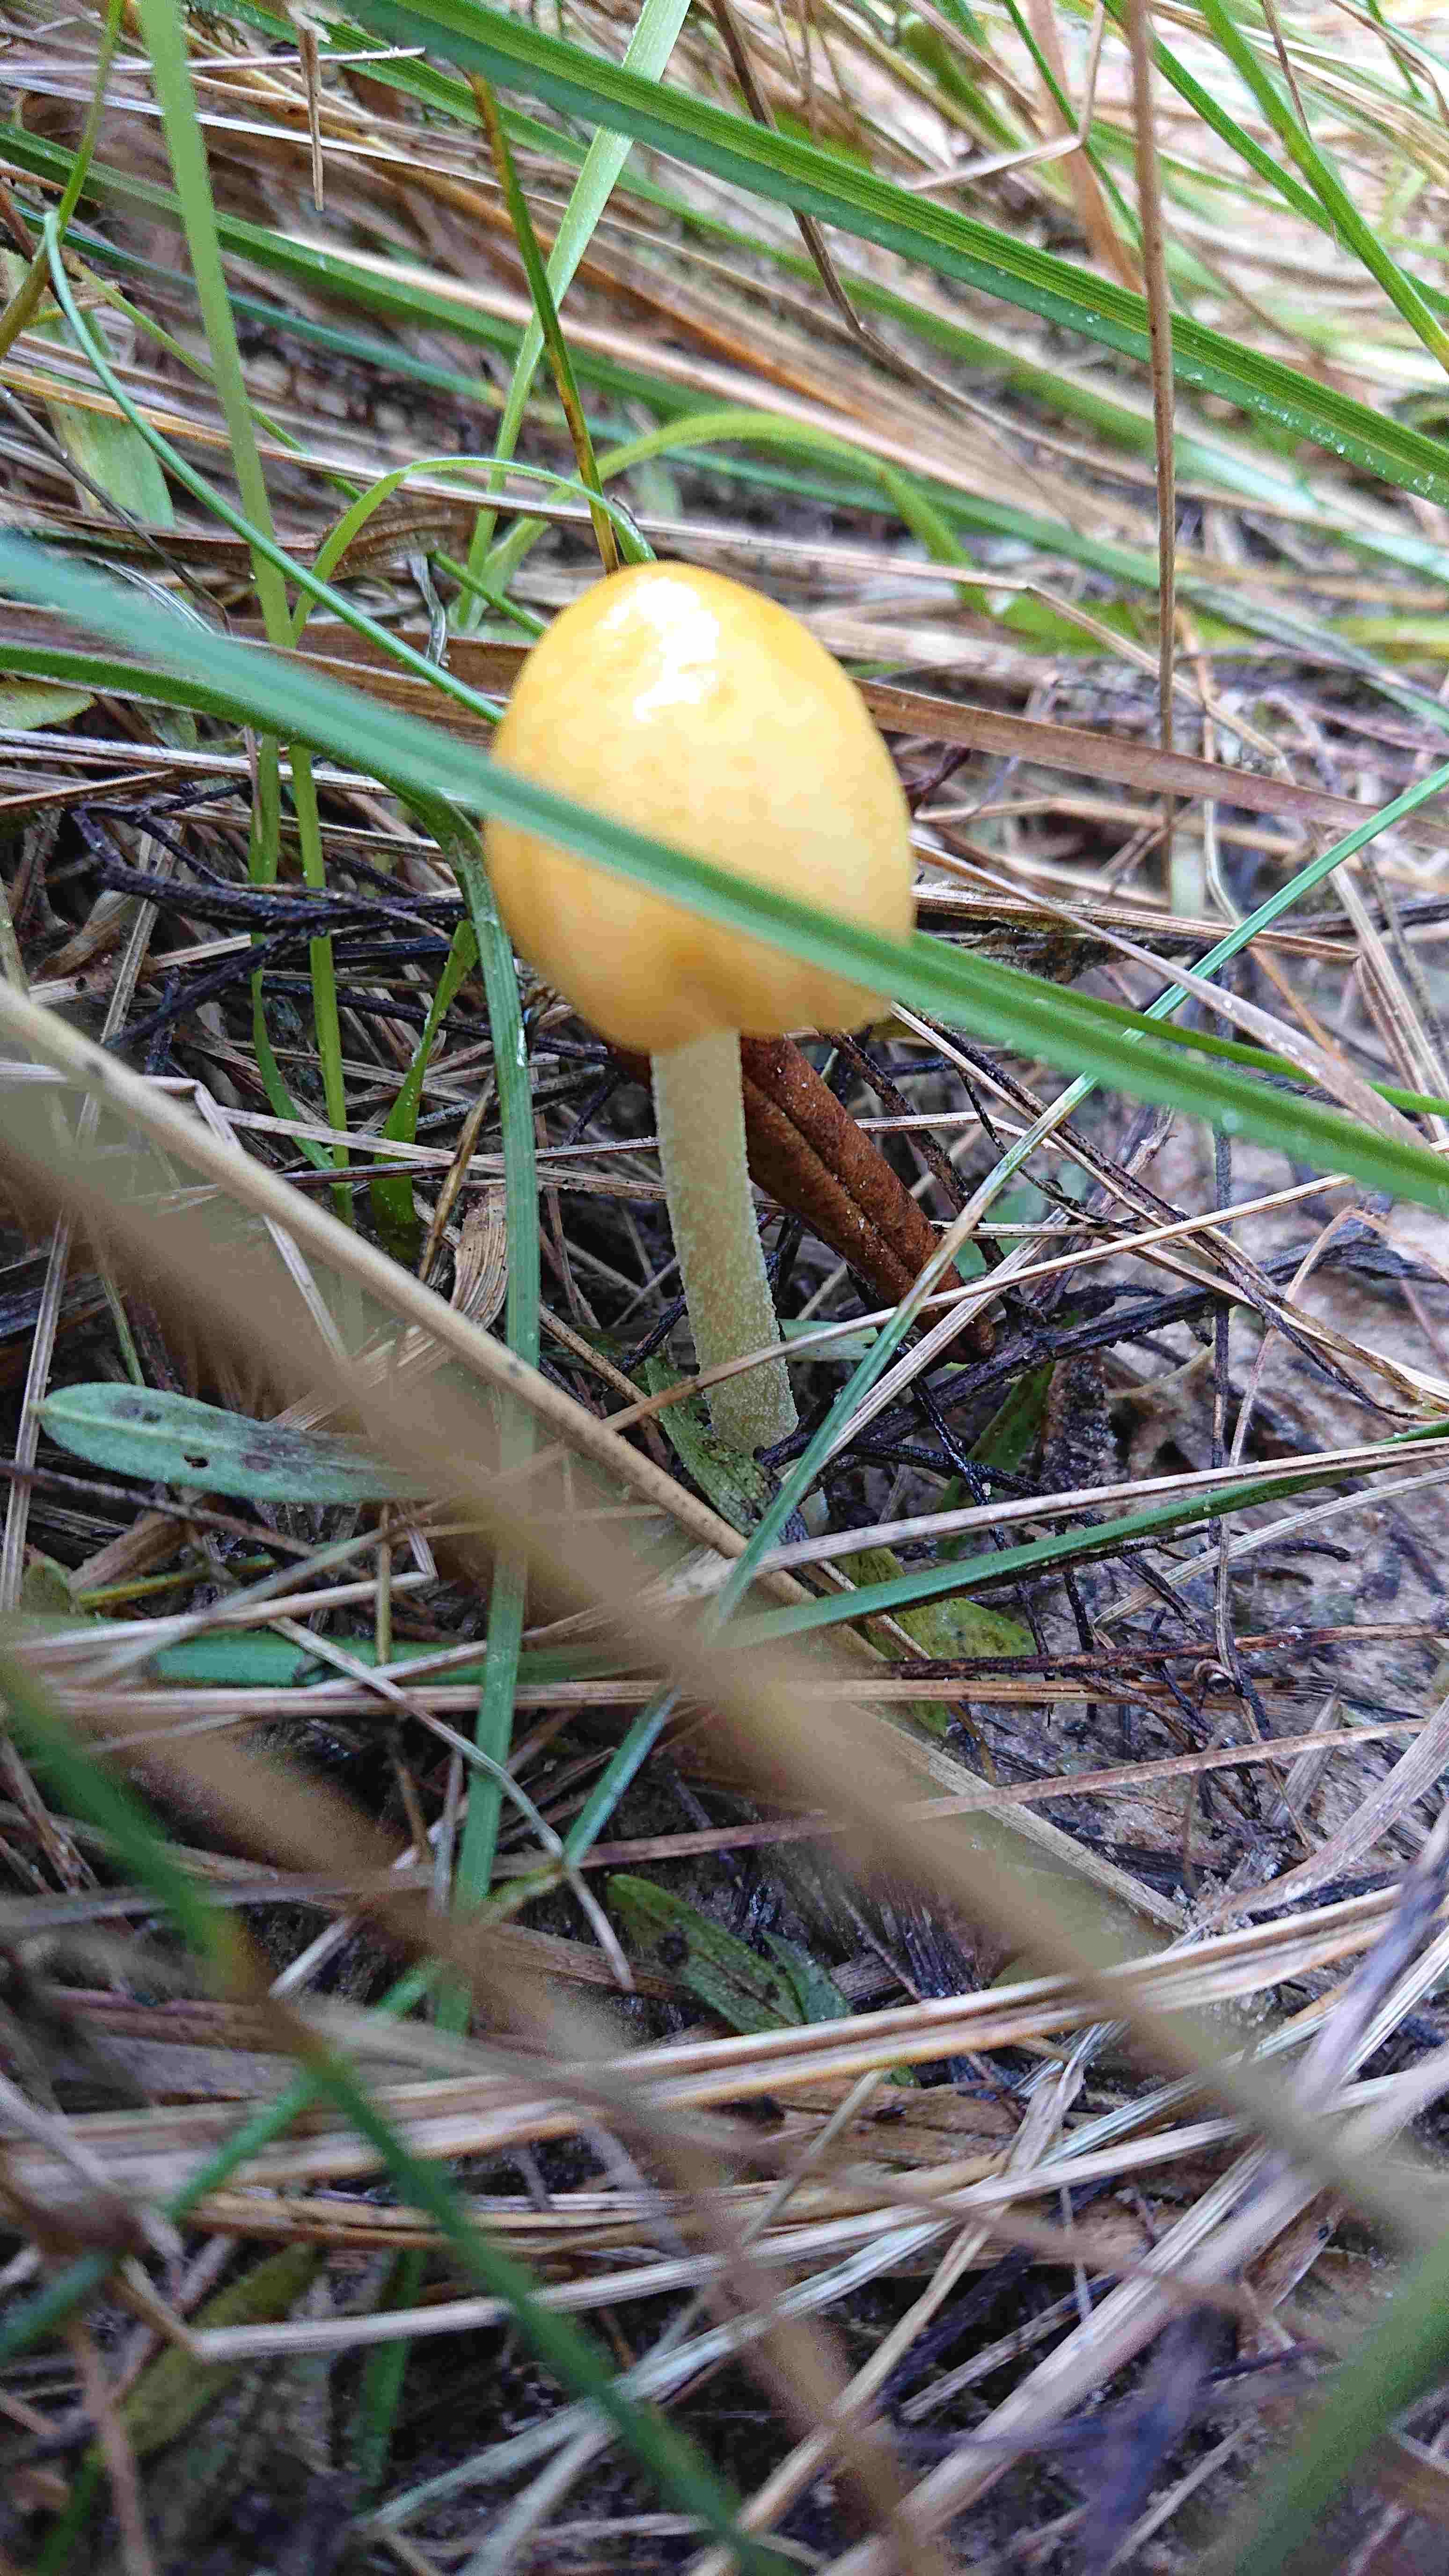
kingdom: Fungi
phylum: Basidiomycota
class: Agaricomycetes
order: Agaricales
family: Bolbitiaceae
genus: Bolbitius
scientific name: Bolbitius titubans
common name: almindelig gulhat
